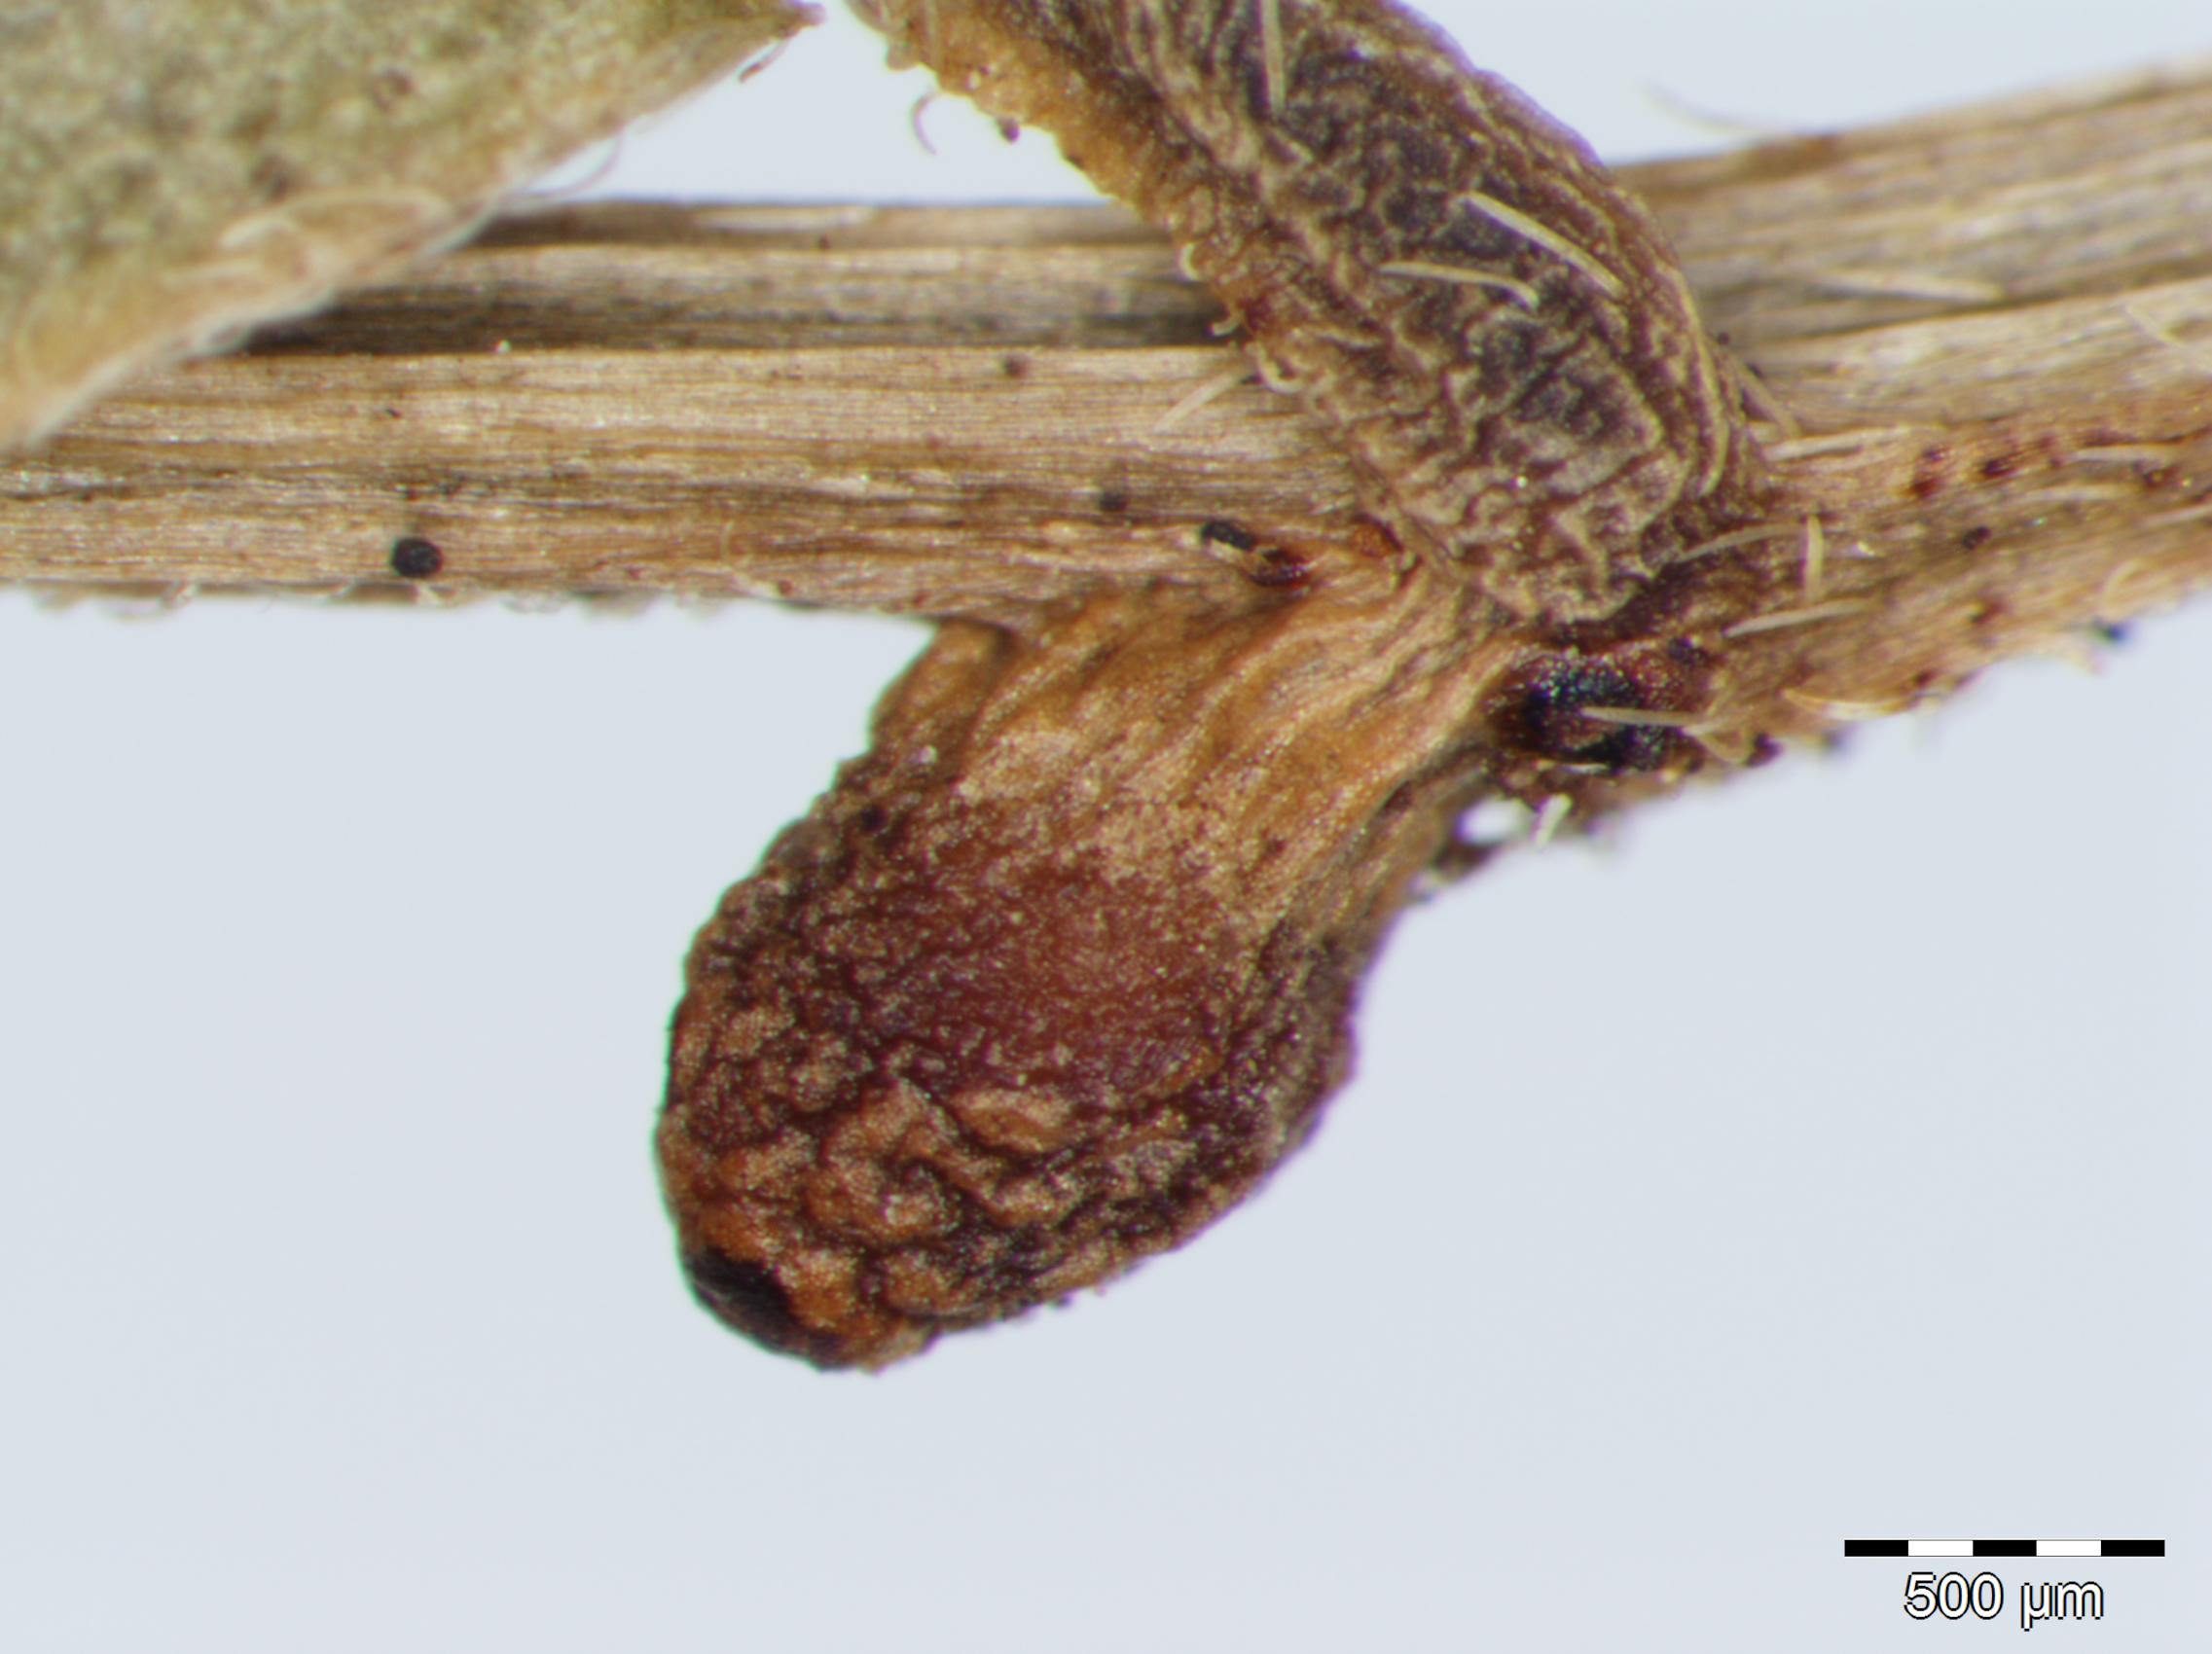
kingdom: Plantae
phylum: Tracheophyta
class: Magnoliopsida
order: Fabales
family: Fabaceae
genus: Senna
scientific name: Senna pendula
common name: Easter cassia
